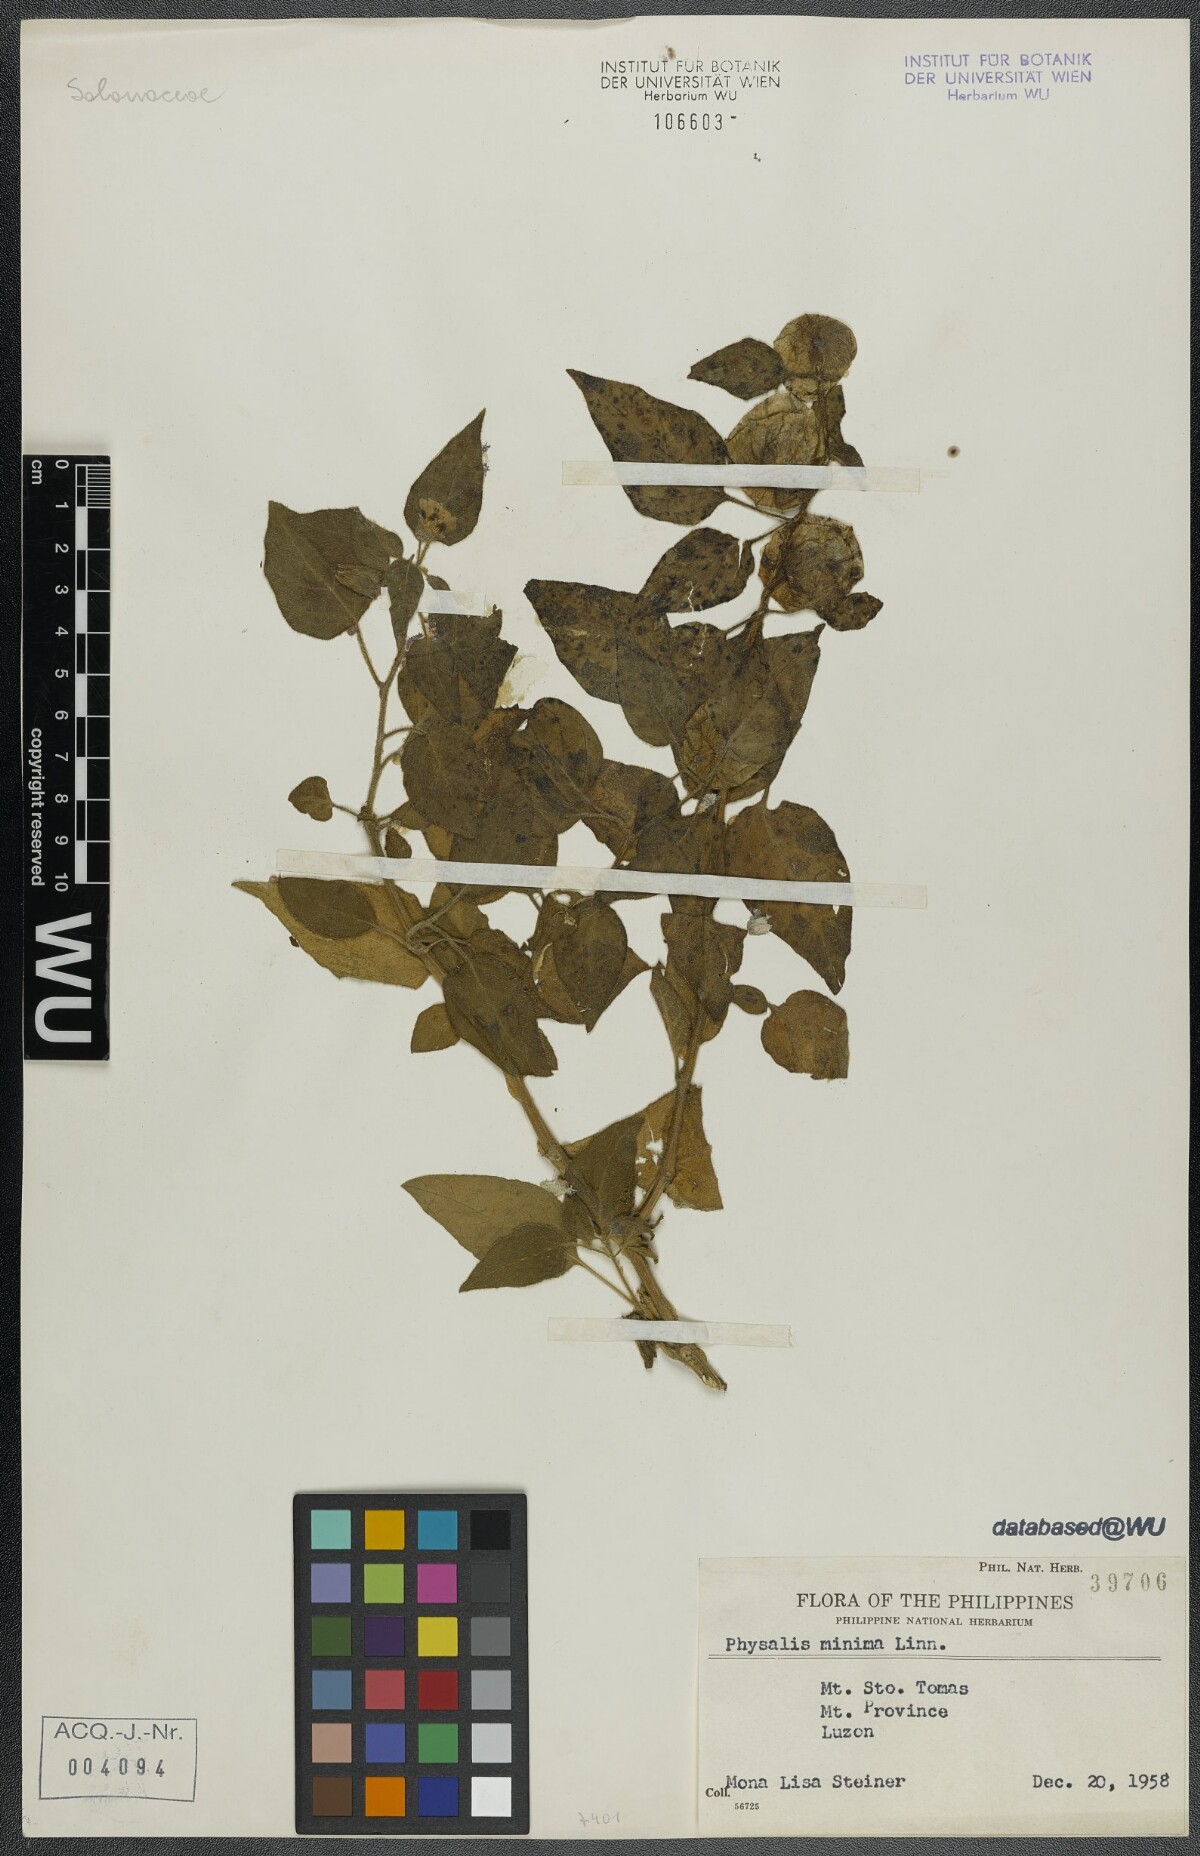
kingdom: Plantae
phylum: Tracheophyta
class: Magnoliopsida
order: Solanales
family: Solanaceae
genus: Physalis
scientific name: Physalis angulata
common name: Angular winter-cherry
